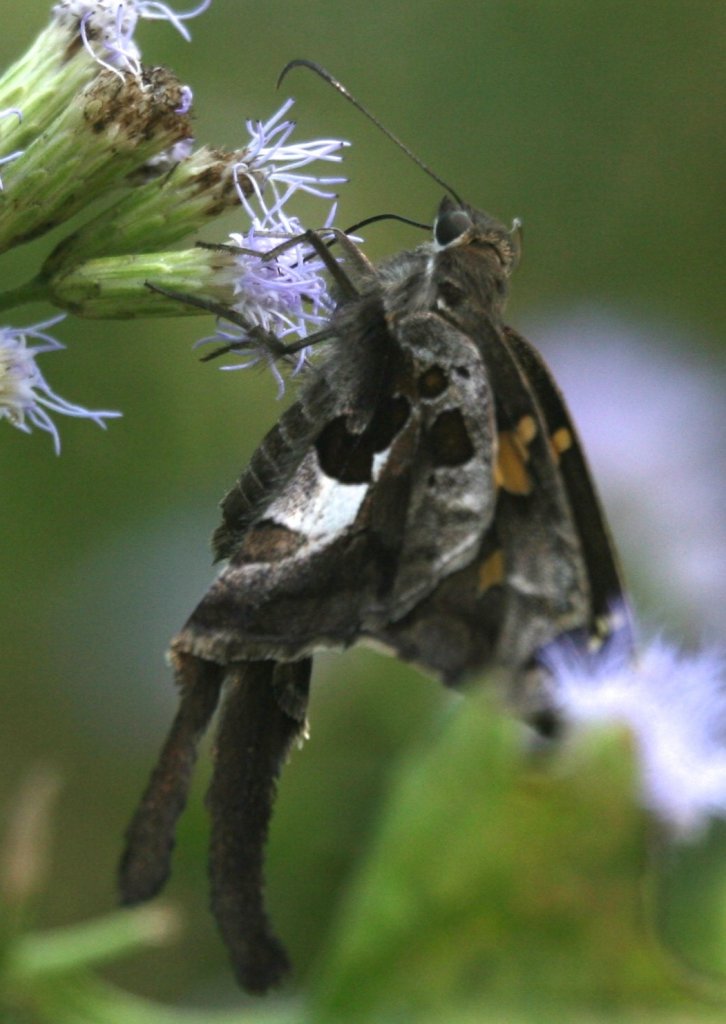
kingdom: Animalia
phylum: Arthropoda
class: Insecta
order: Lepidoptera
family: Hesperiidae
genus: Chioides
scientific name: Chioides zilpa
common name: Zilpa Longtail
